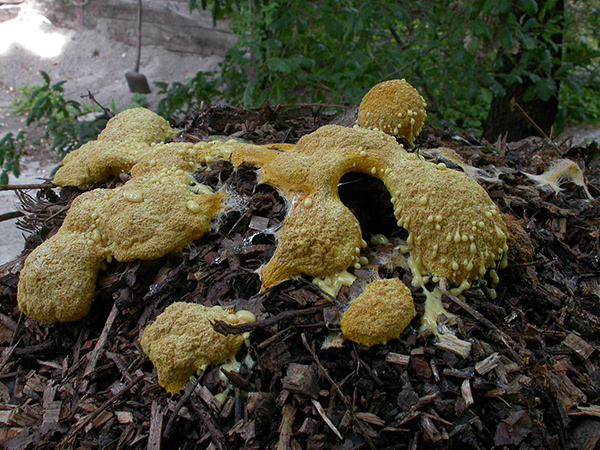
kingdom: Protozoa
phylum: Mycetozoa
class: Myxomycetes
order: Physarales
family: Physaraceae
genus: Fuligo
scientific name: Fuligo septica
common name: Dog vomit slime mold
